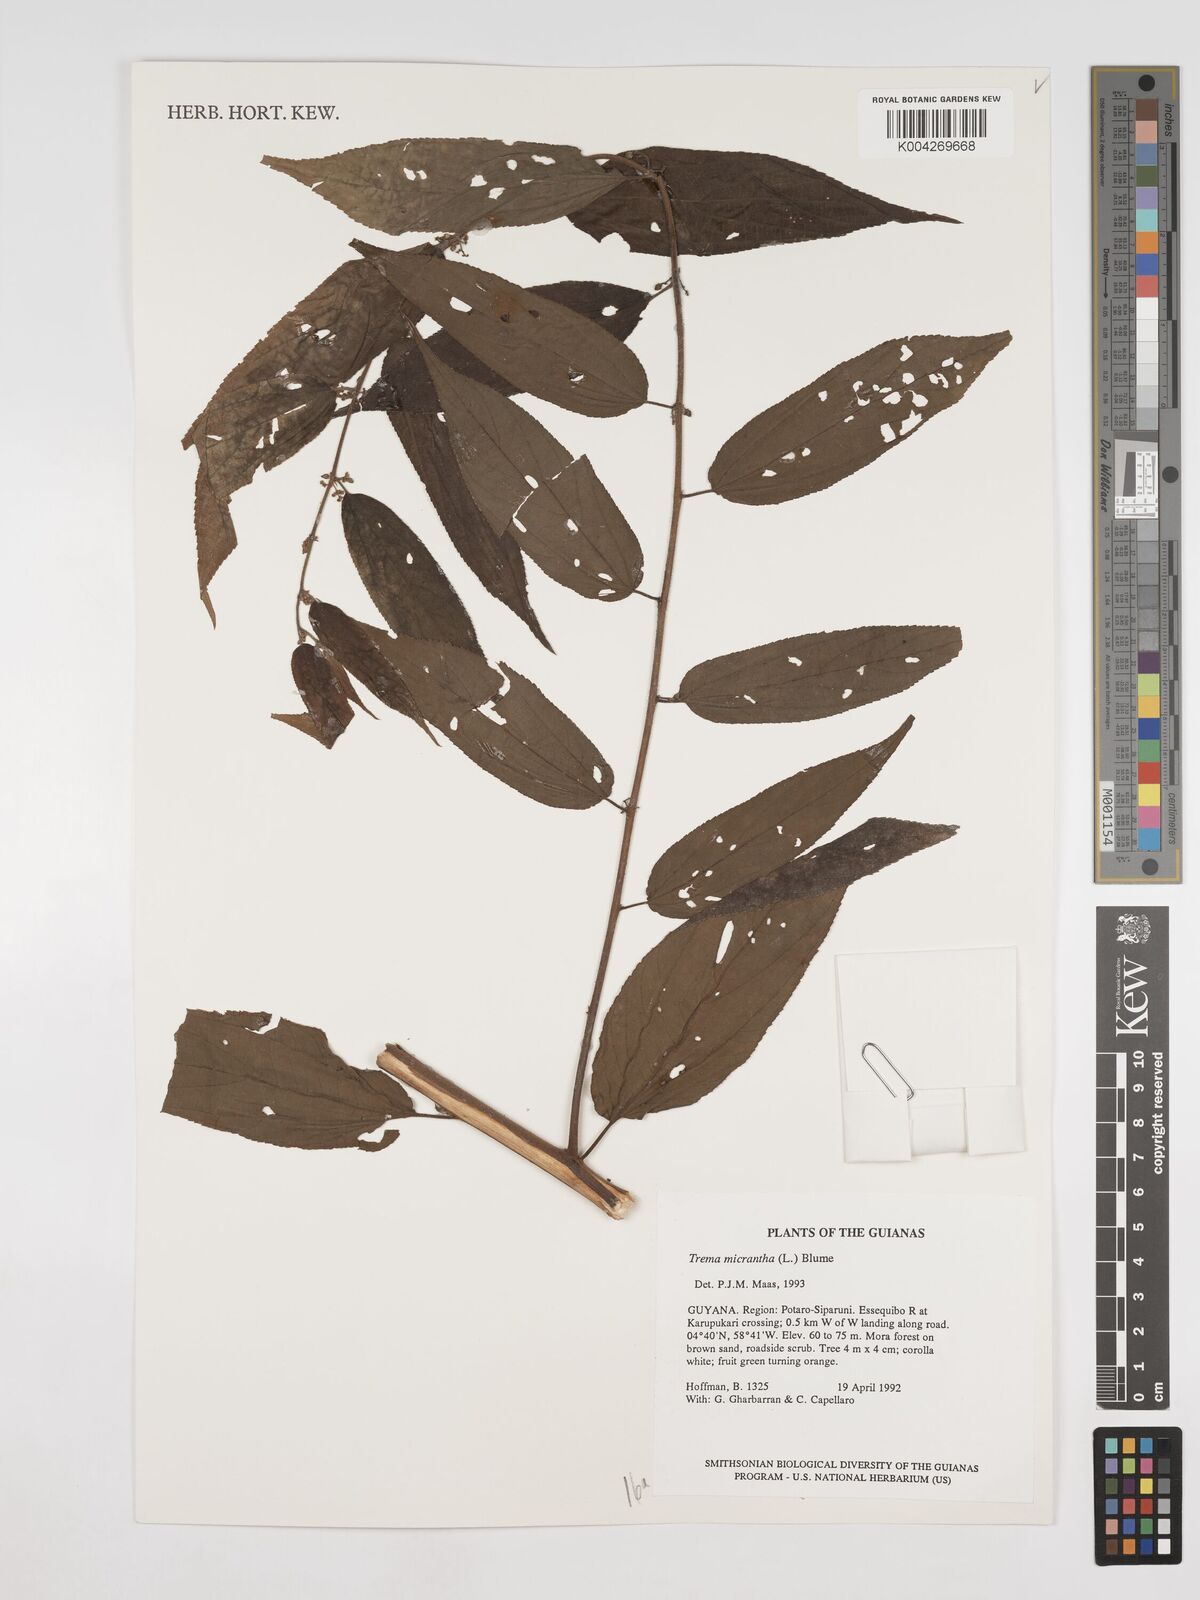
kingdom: Plantae
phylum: Tracheophyta
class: Magnoliopsida
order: Rosales
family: Cannabaceae
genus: Trema
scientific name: Trema micranthum
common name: Jamaican nettletree
